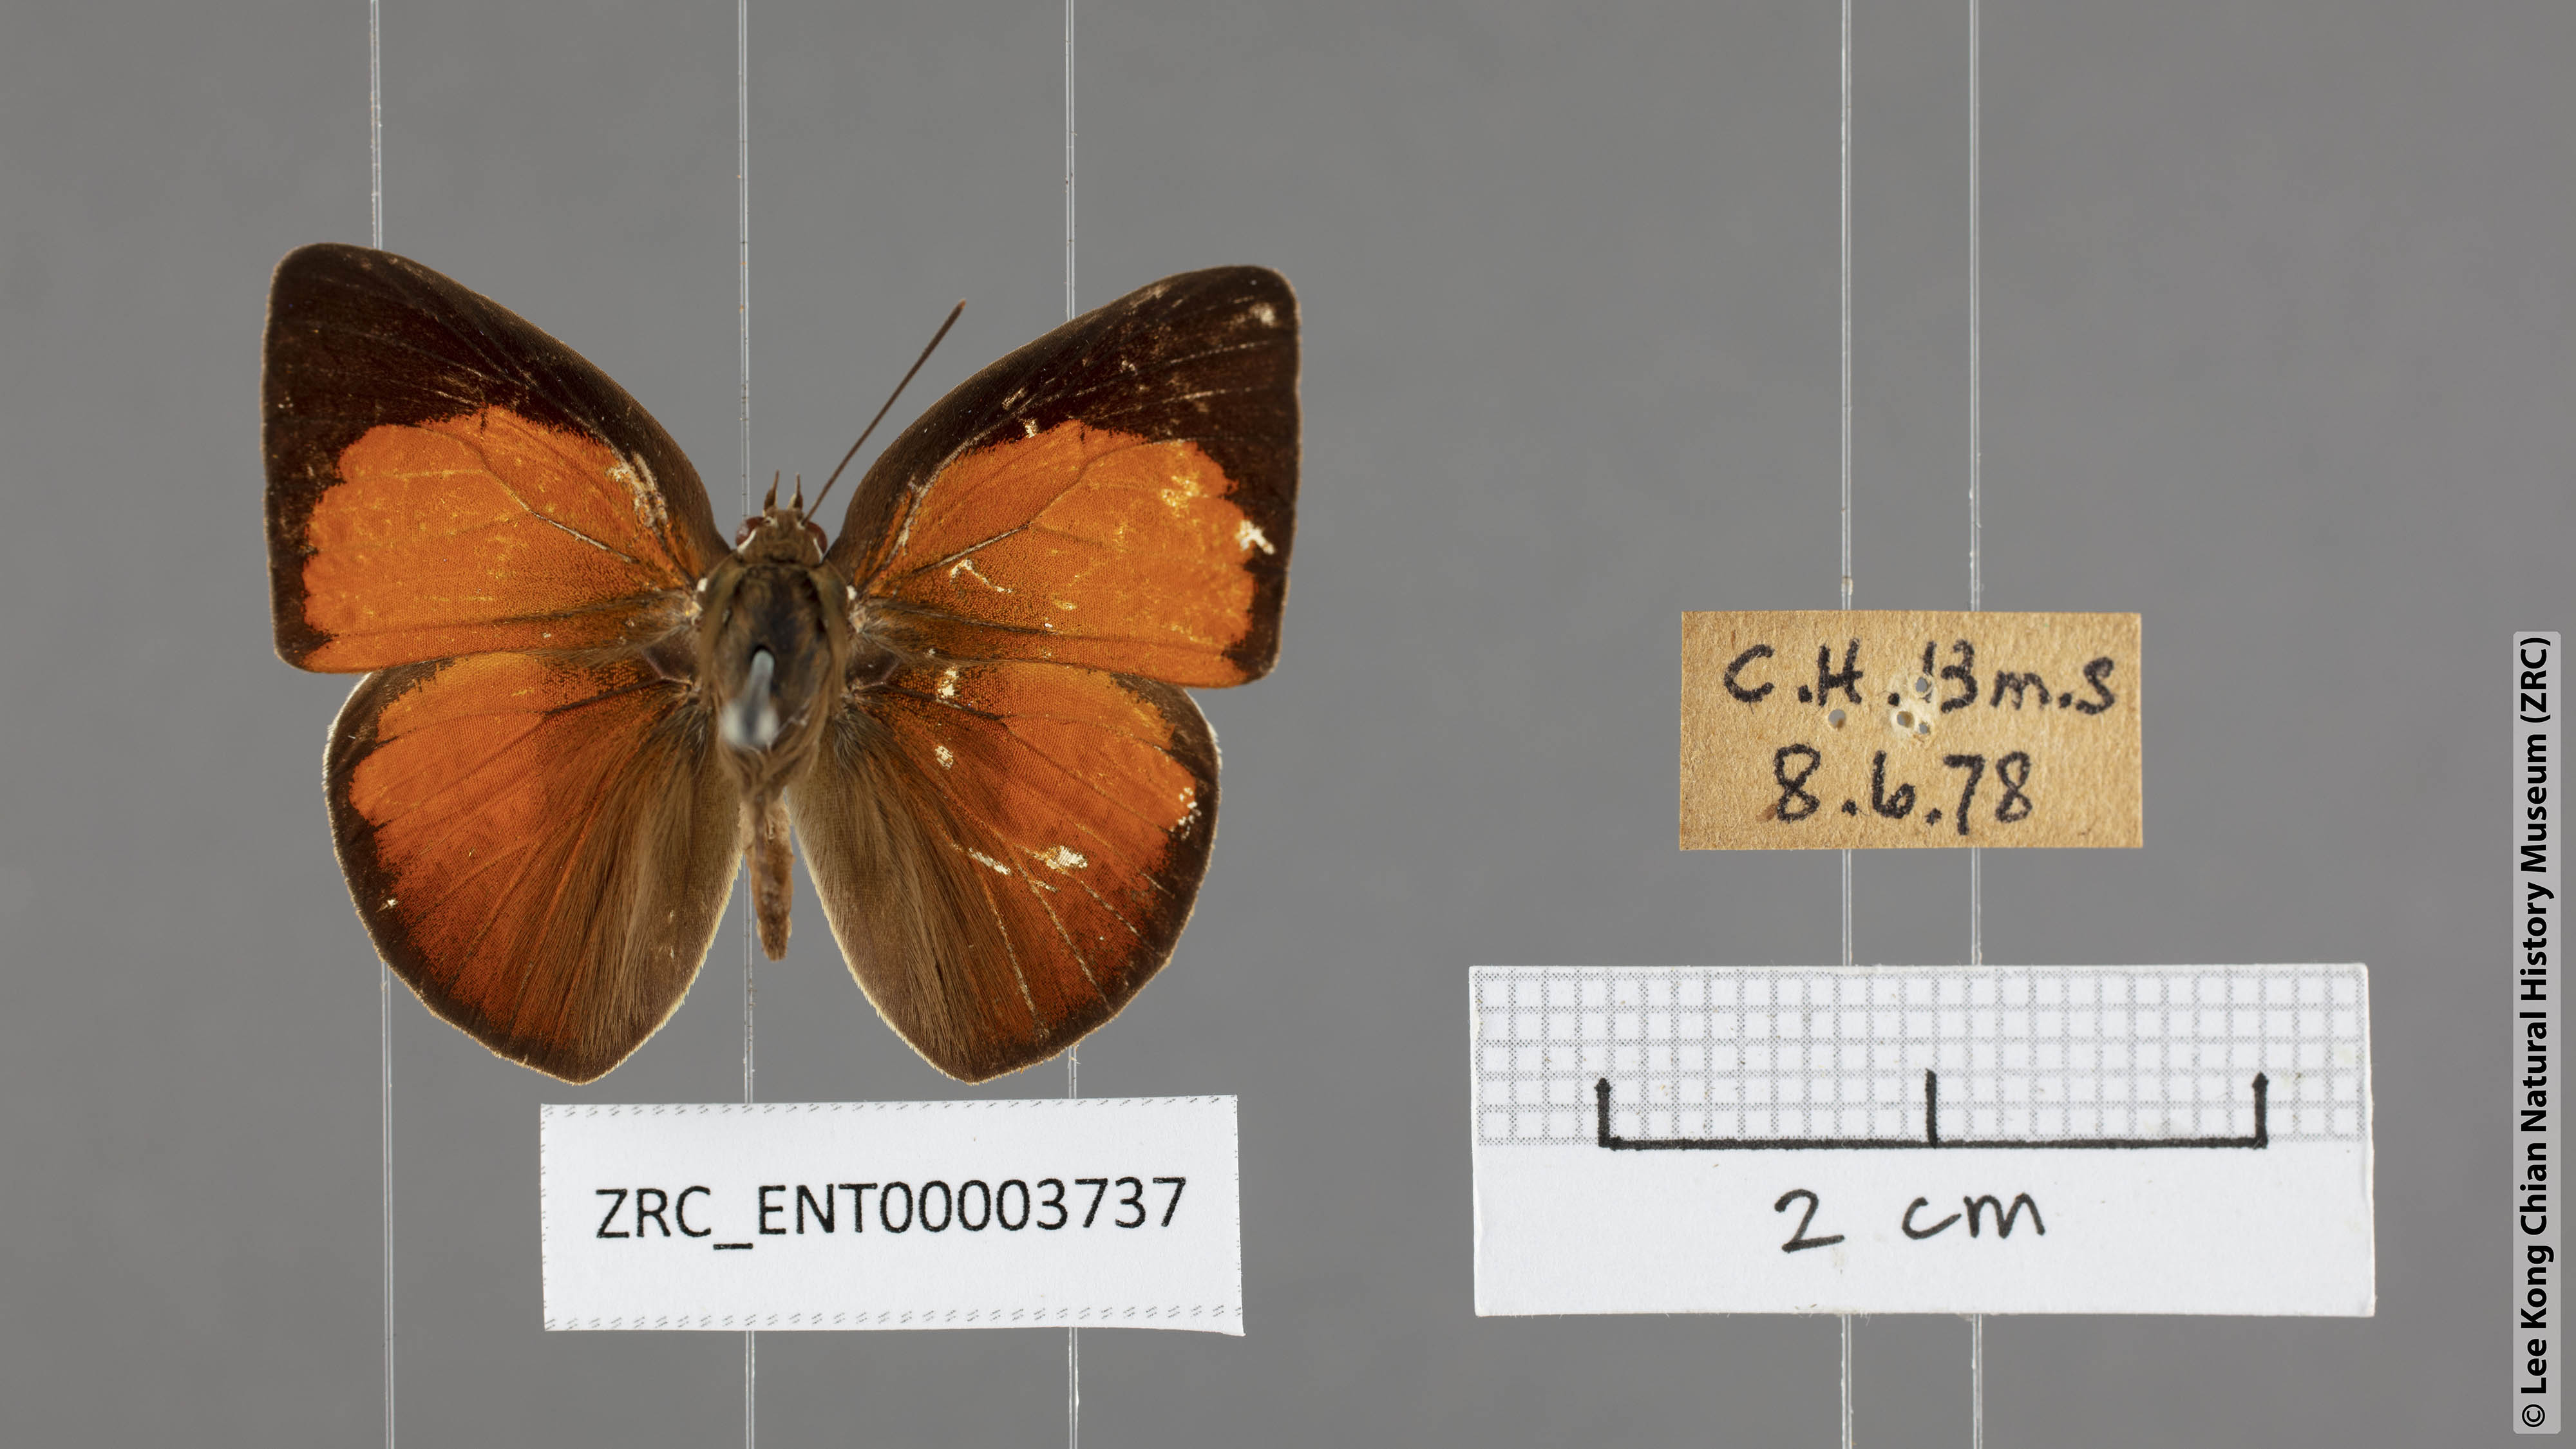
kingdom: Animalia
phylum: Arthropoda
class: Insecta
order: Lepidoptera
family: Lycaenidae
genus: Curetis
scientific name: Curetis insularis
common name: Narrow-banded sunbeam
